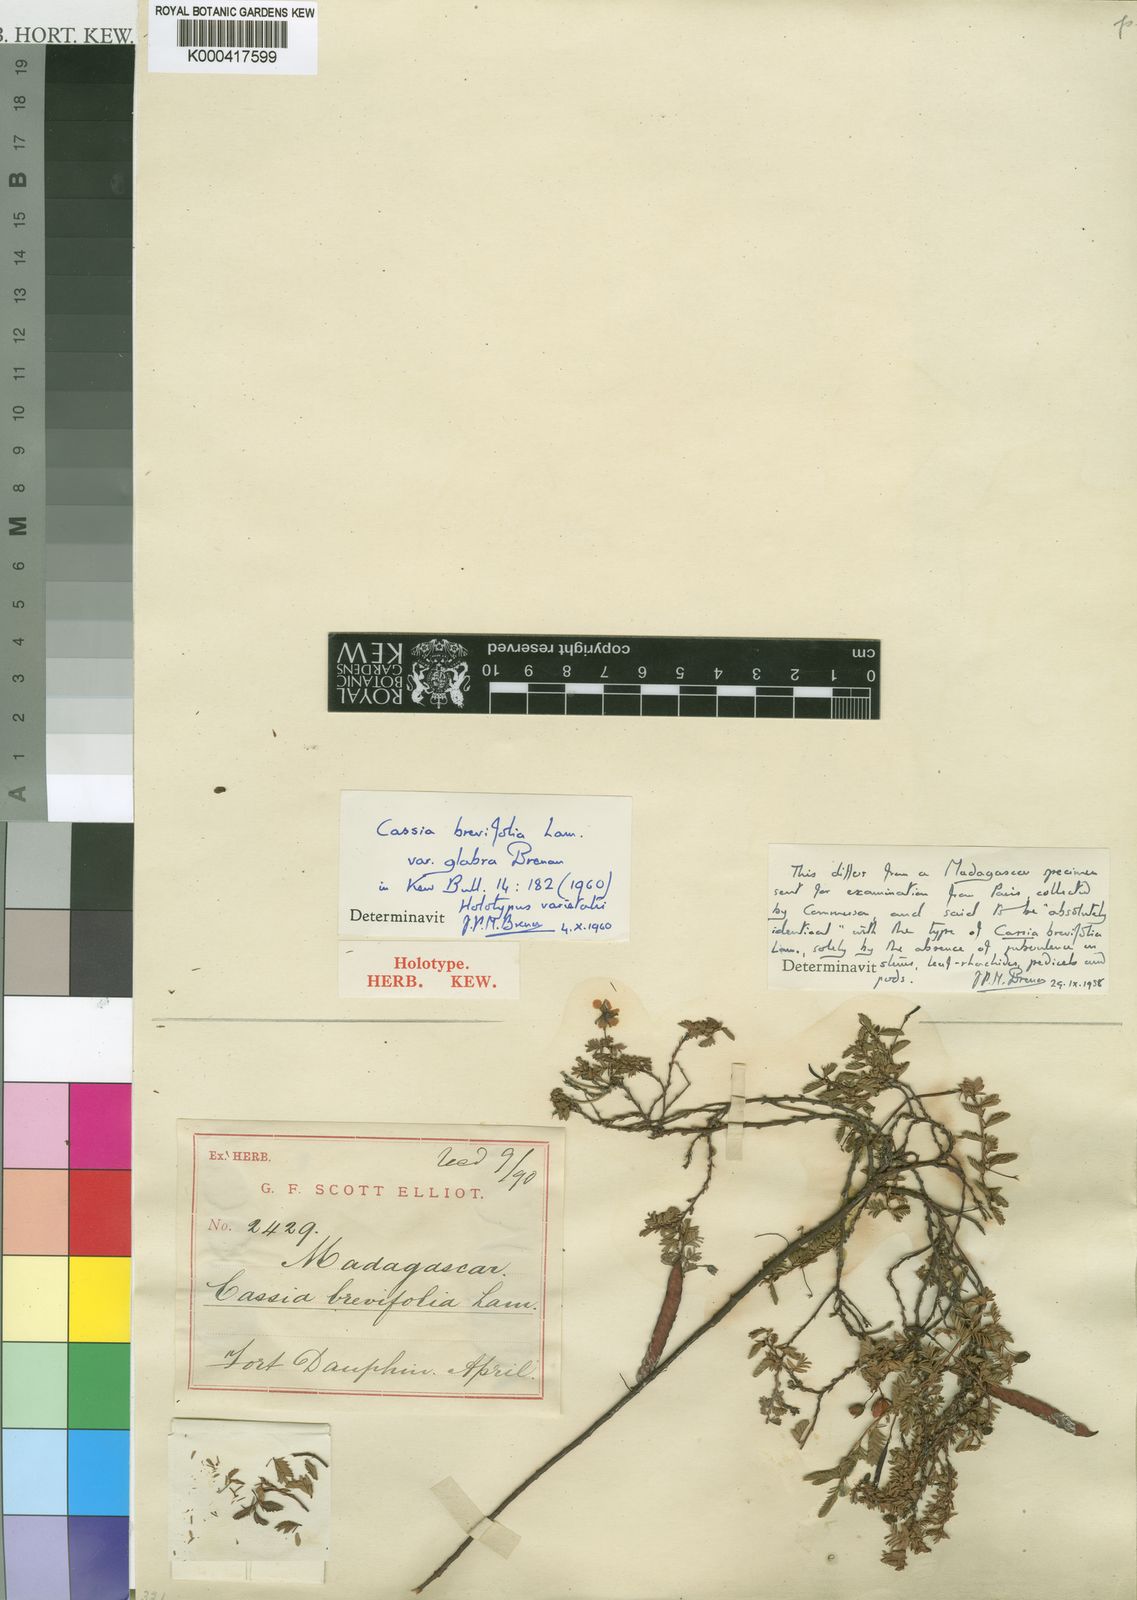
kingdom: Plantae
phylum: Tracheophyta
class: Magnoliopsida
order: Fabales
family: Fabaceae
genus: Chamaecrista
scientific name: Chamaecrista brevifolia
